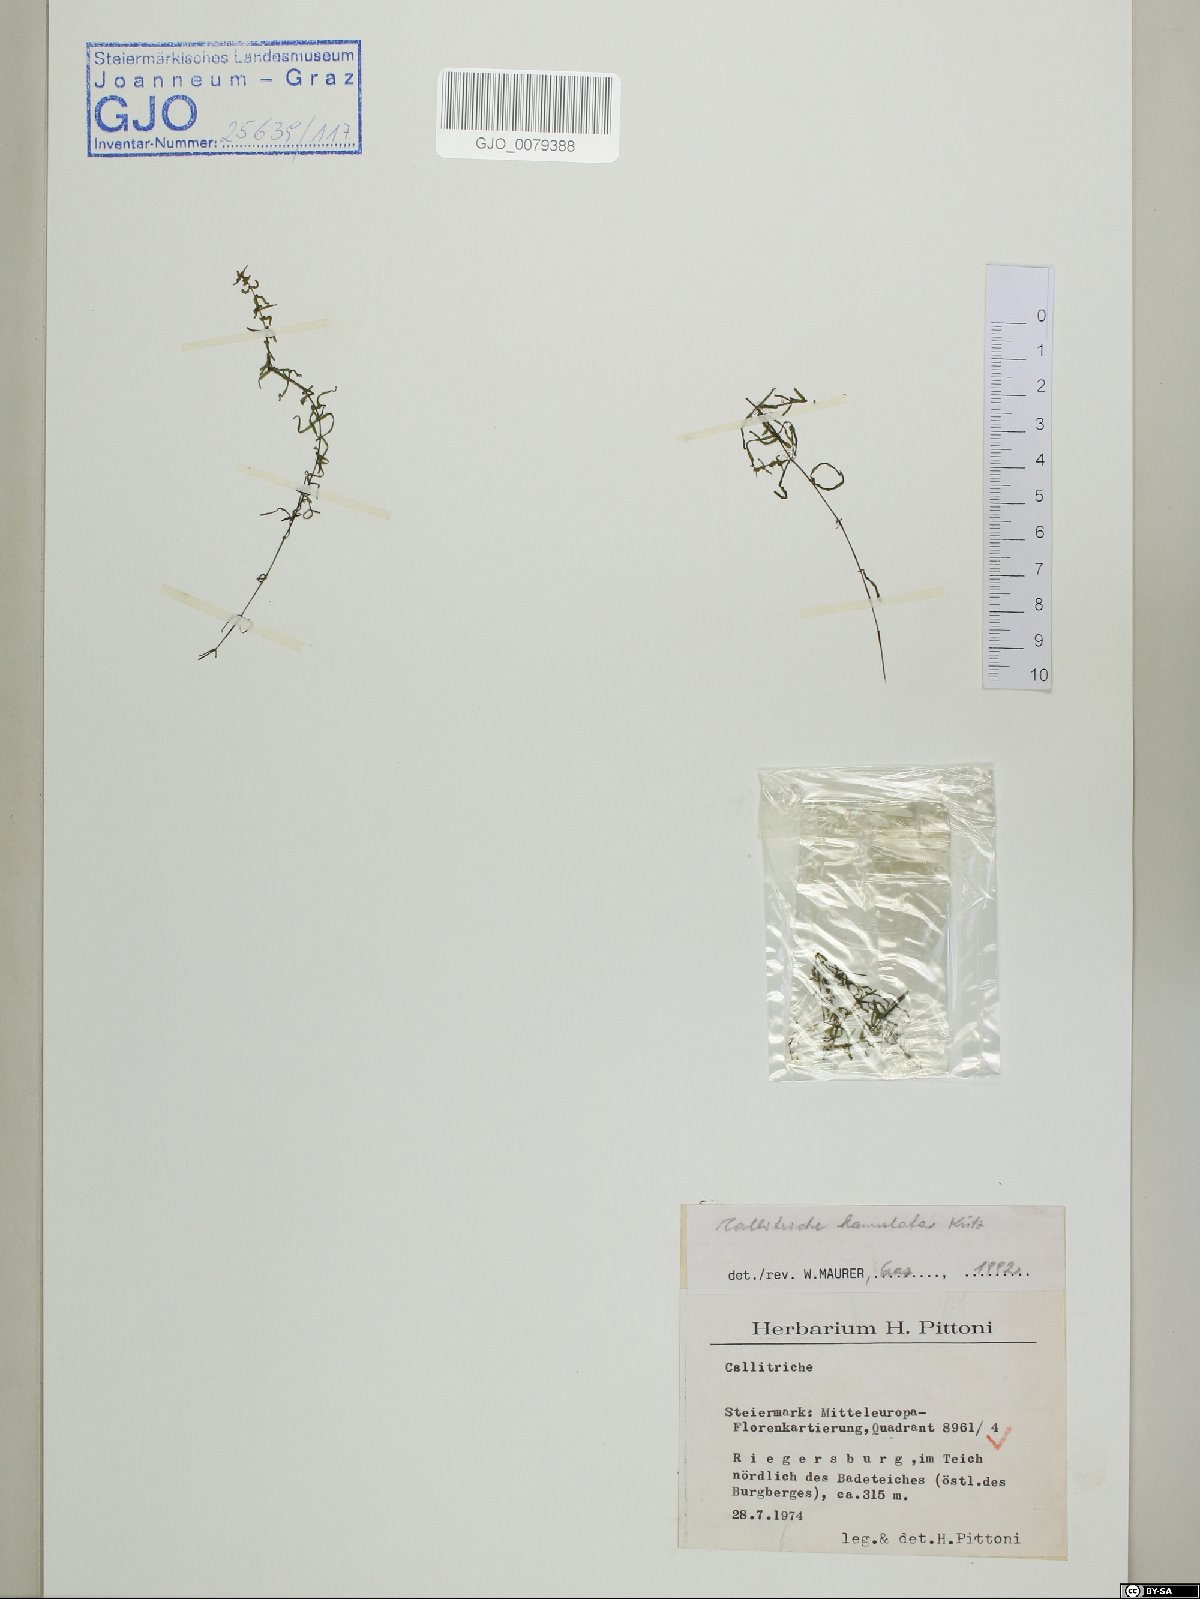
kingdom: Plantae
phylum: Tracheophyta
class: Magnoliopsida
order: Lamiales
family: Plantaginaceae
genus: Callitriche
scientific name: Callitriche hamulata
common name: Intermediate water-starwort
